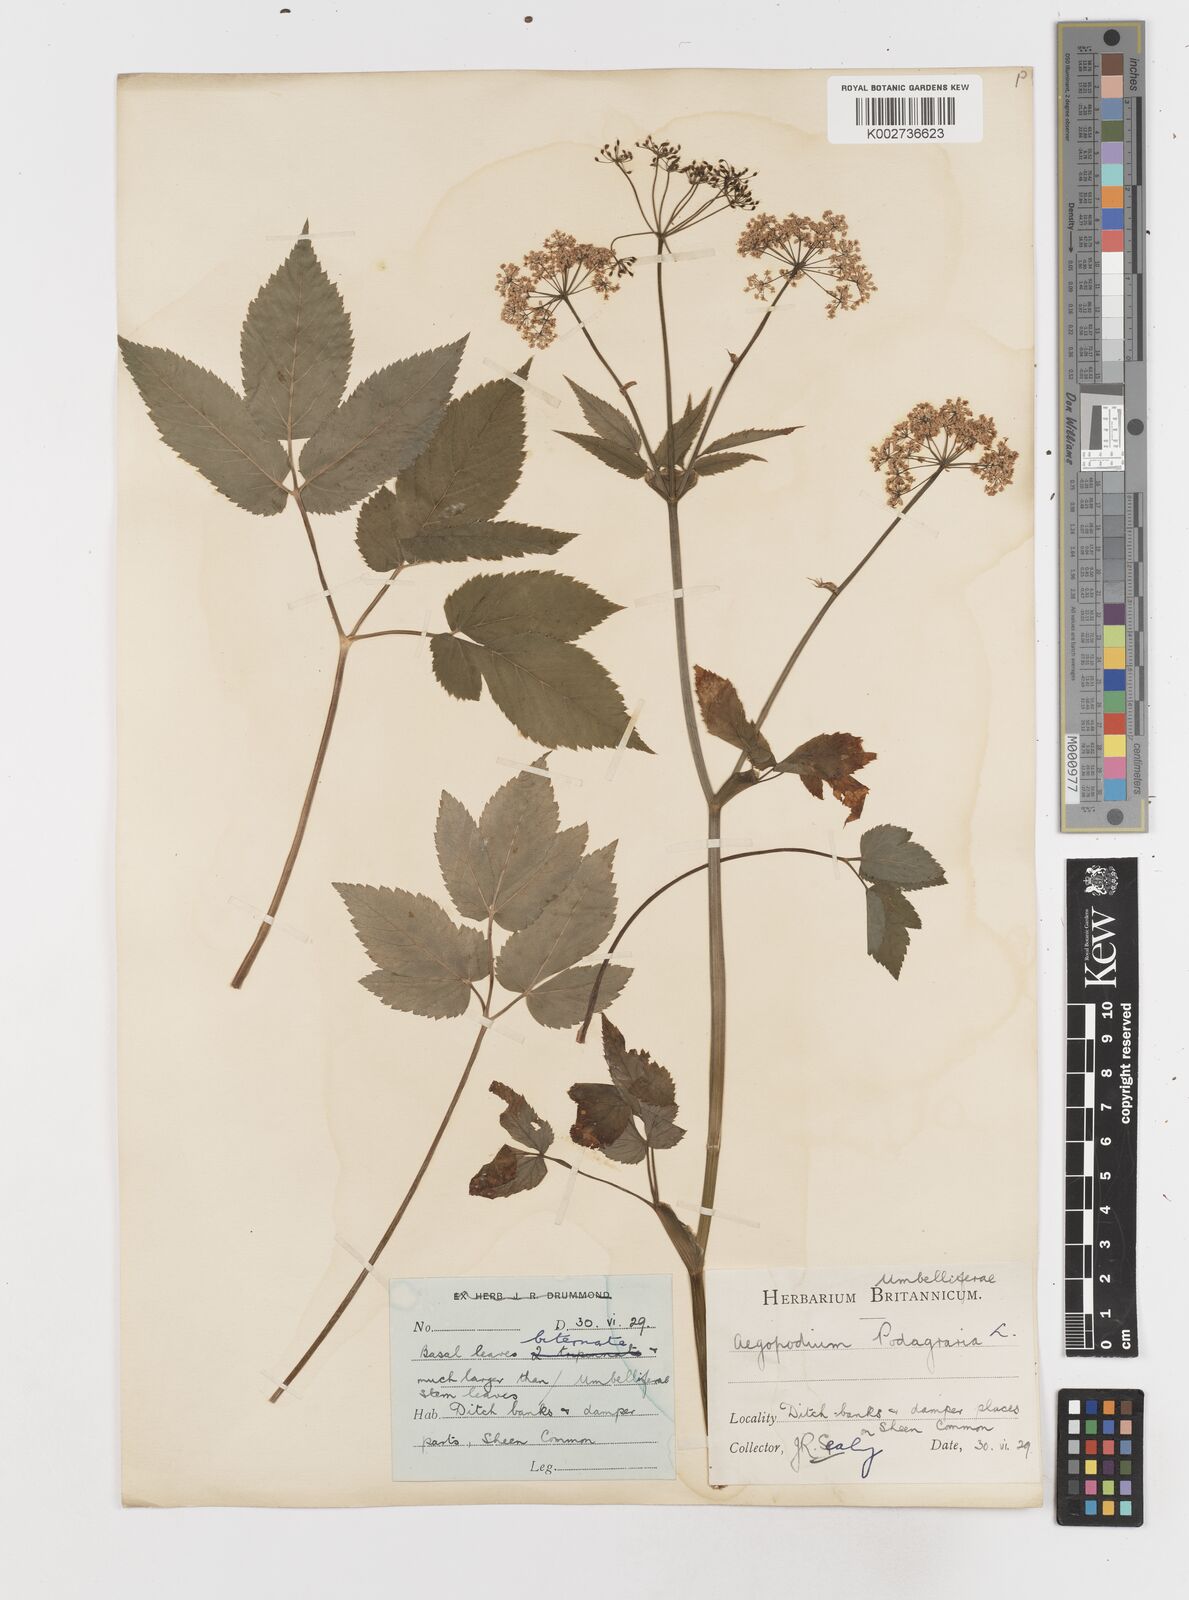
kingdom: Plantae
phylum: Tracheophyta
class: Magnoliopsida
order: Apiales
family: Apiaceae
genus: Aegopodium
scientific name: Aegopodium podagraria
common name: Ground-elder
